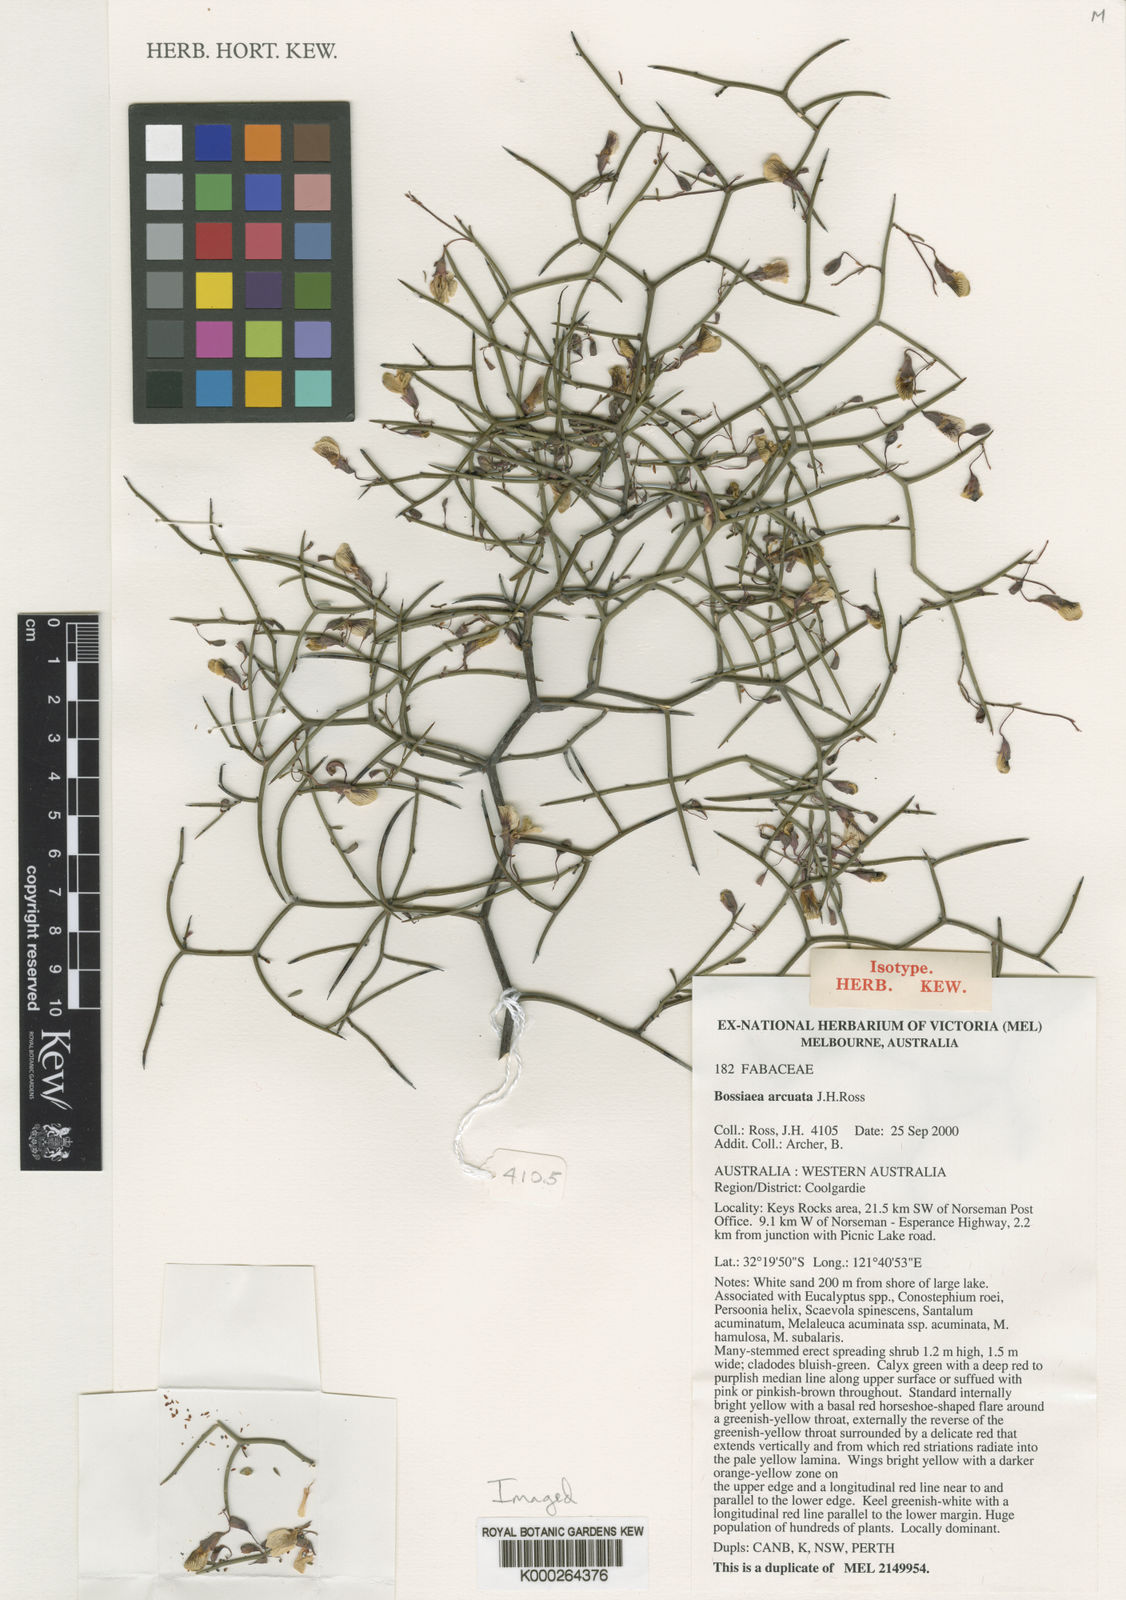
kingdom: Plantae
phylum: Tracheophyta
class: Magnoliopsida
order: Fabales
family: Fabaceae
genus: Bossiaea
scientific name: Bossiaea arcuata
